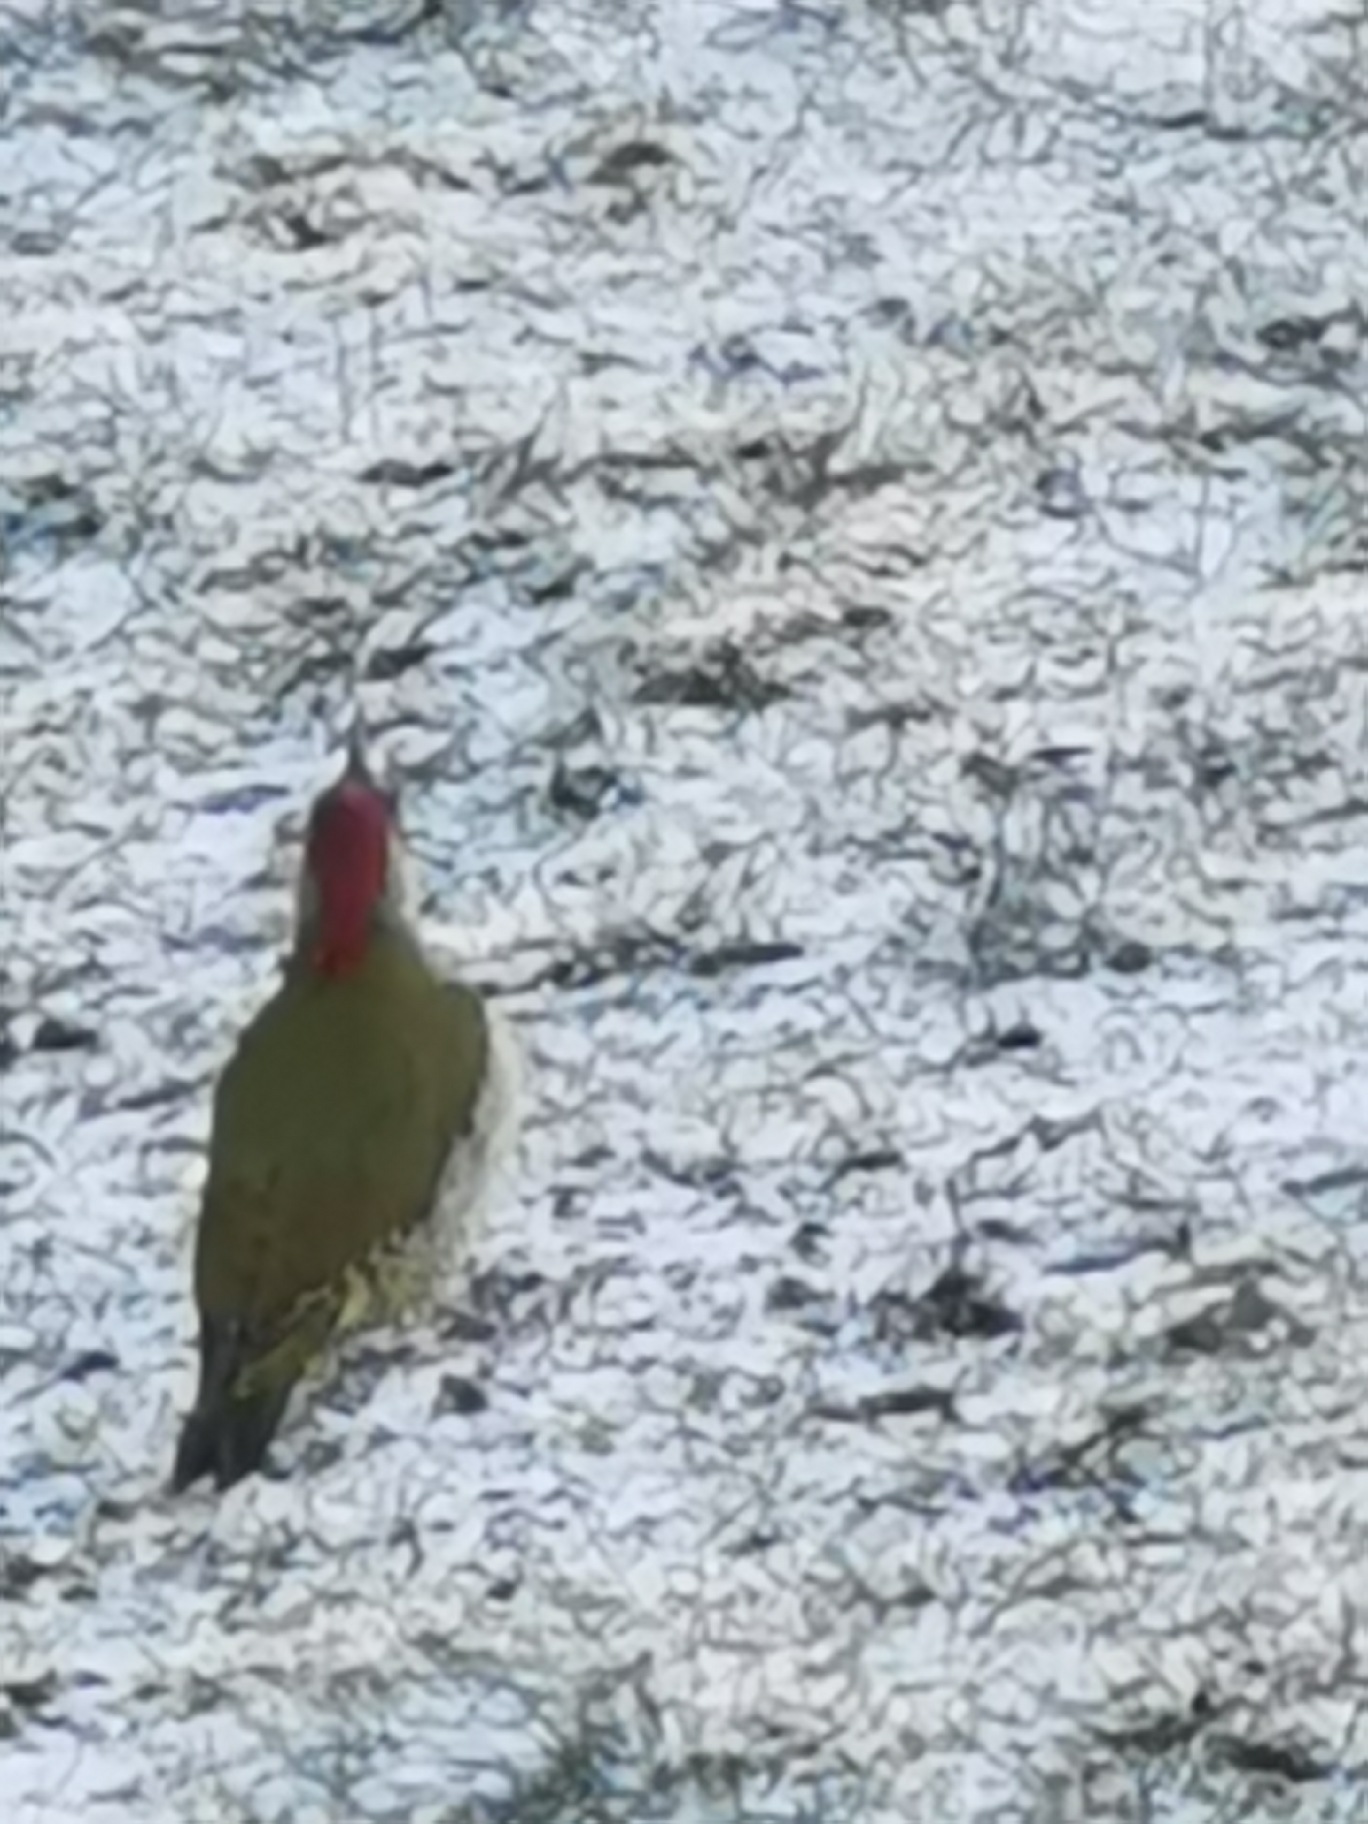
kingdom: Animalia
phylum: Chordata
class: Aves
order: Piciformes
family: Picidae
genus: Picus
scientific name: Picus viridis
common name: Grønspætte
